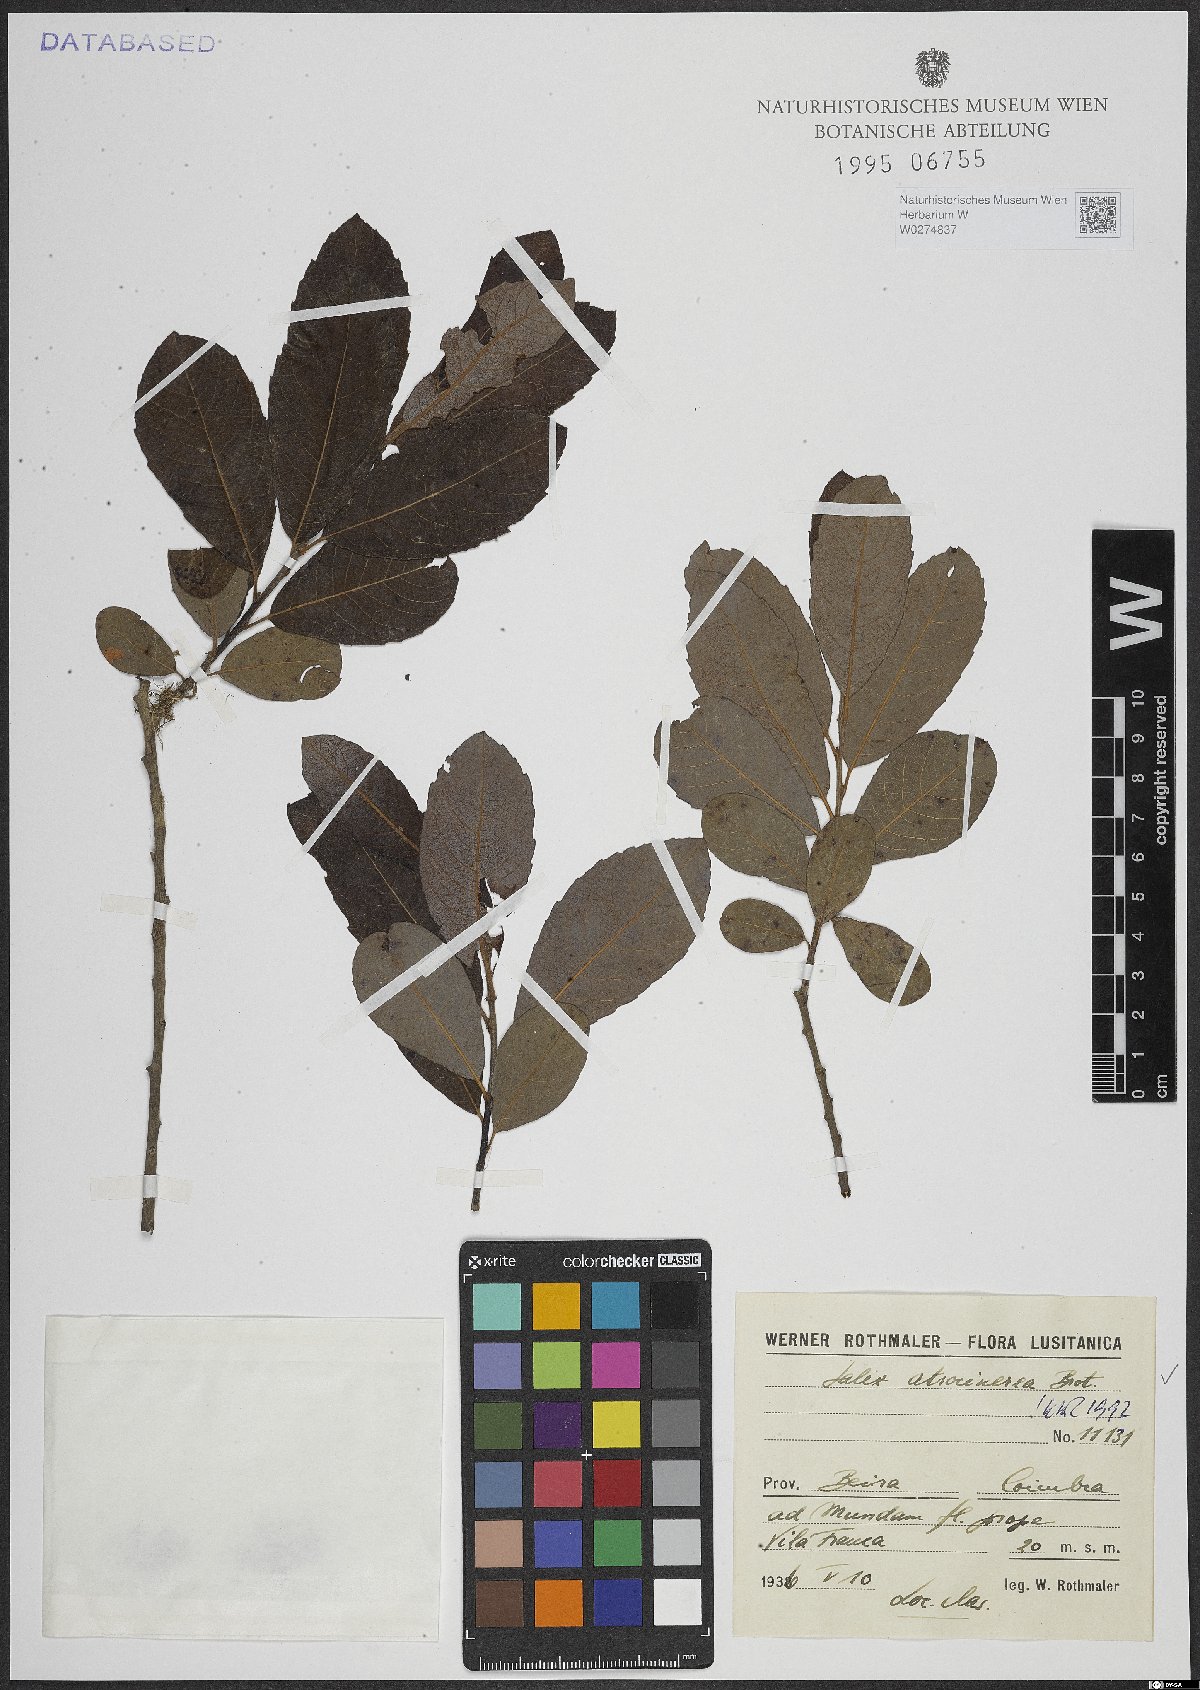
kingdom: Plantae
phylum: Tracheophyta
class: Magnoliopsida
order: Malpighiales
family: Salicaceae
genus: Salix
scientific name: Salix atrocinerea
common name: Rusty willow
